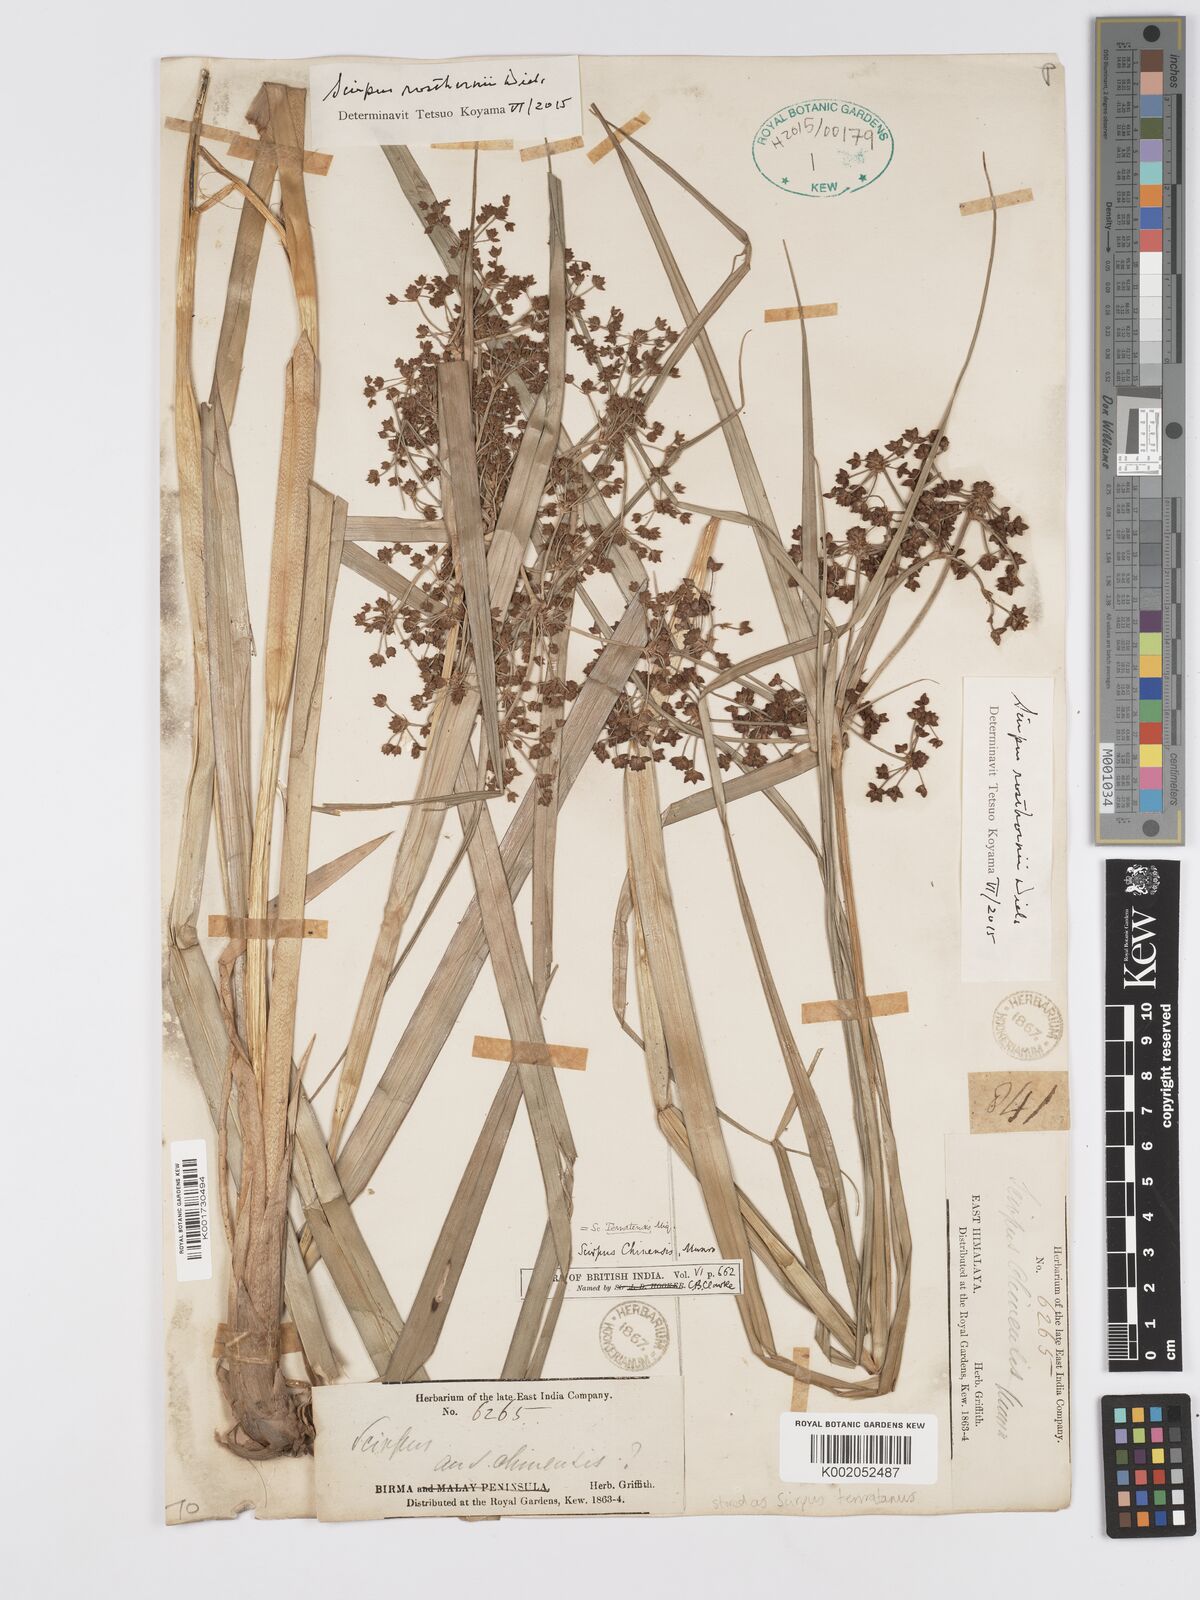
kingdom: Plantae
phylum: Tracheophyta
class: Liliopsida
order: Poales
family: Cyperaceae
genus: Scirpus
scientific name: Scirpus rosthornii
